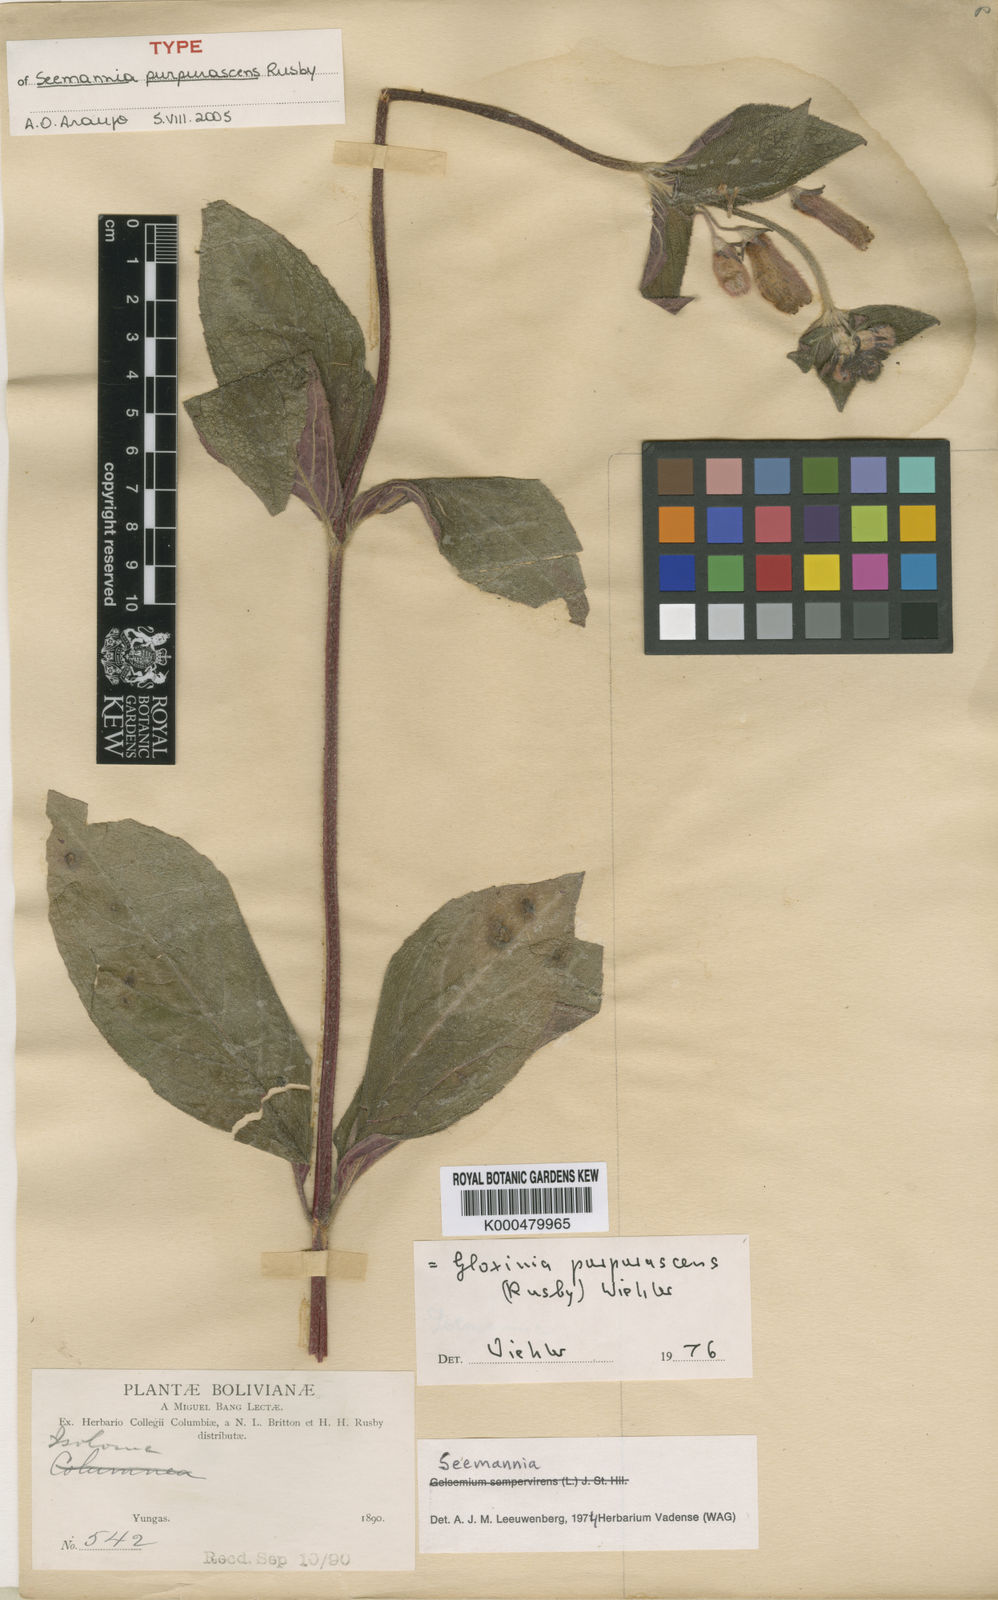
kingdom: Plantae
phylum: Tracheophyta
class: Magnoliopsida
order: Lamiales
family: Gesneriaceae
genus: Seemannia
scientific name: Seemannia purpurascens
